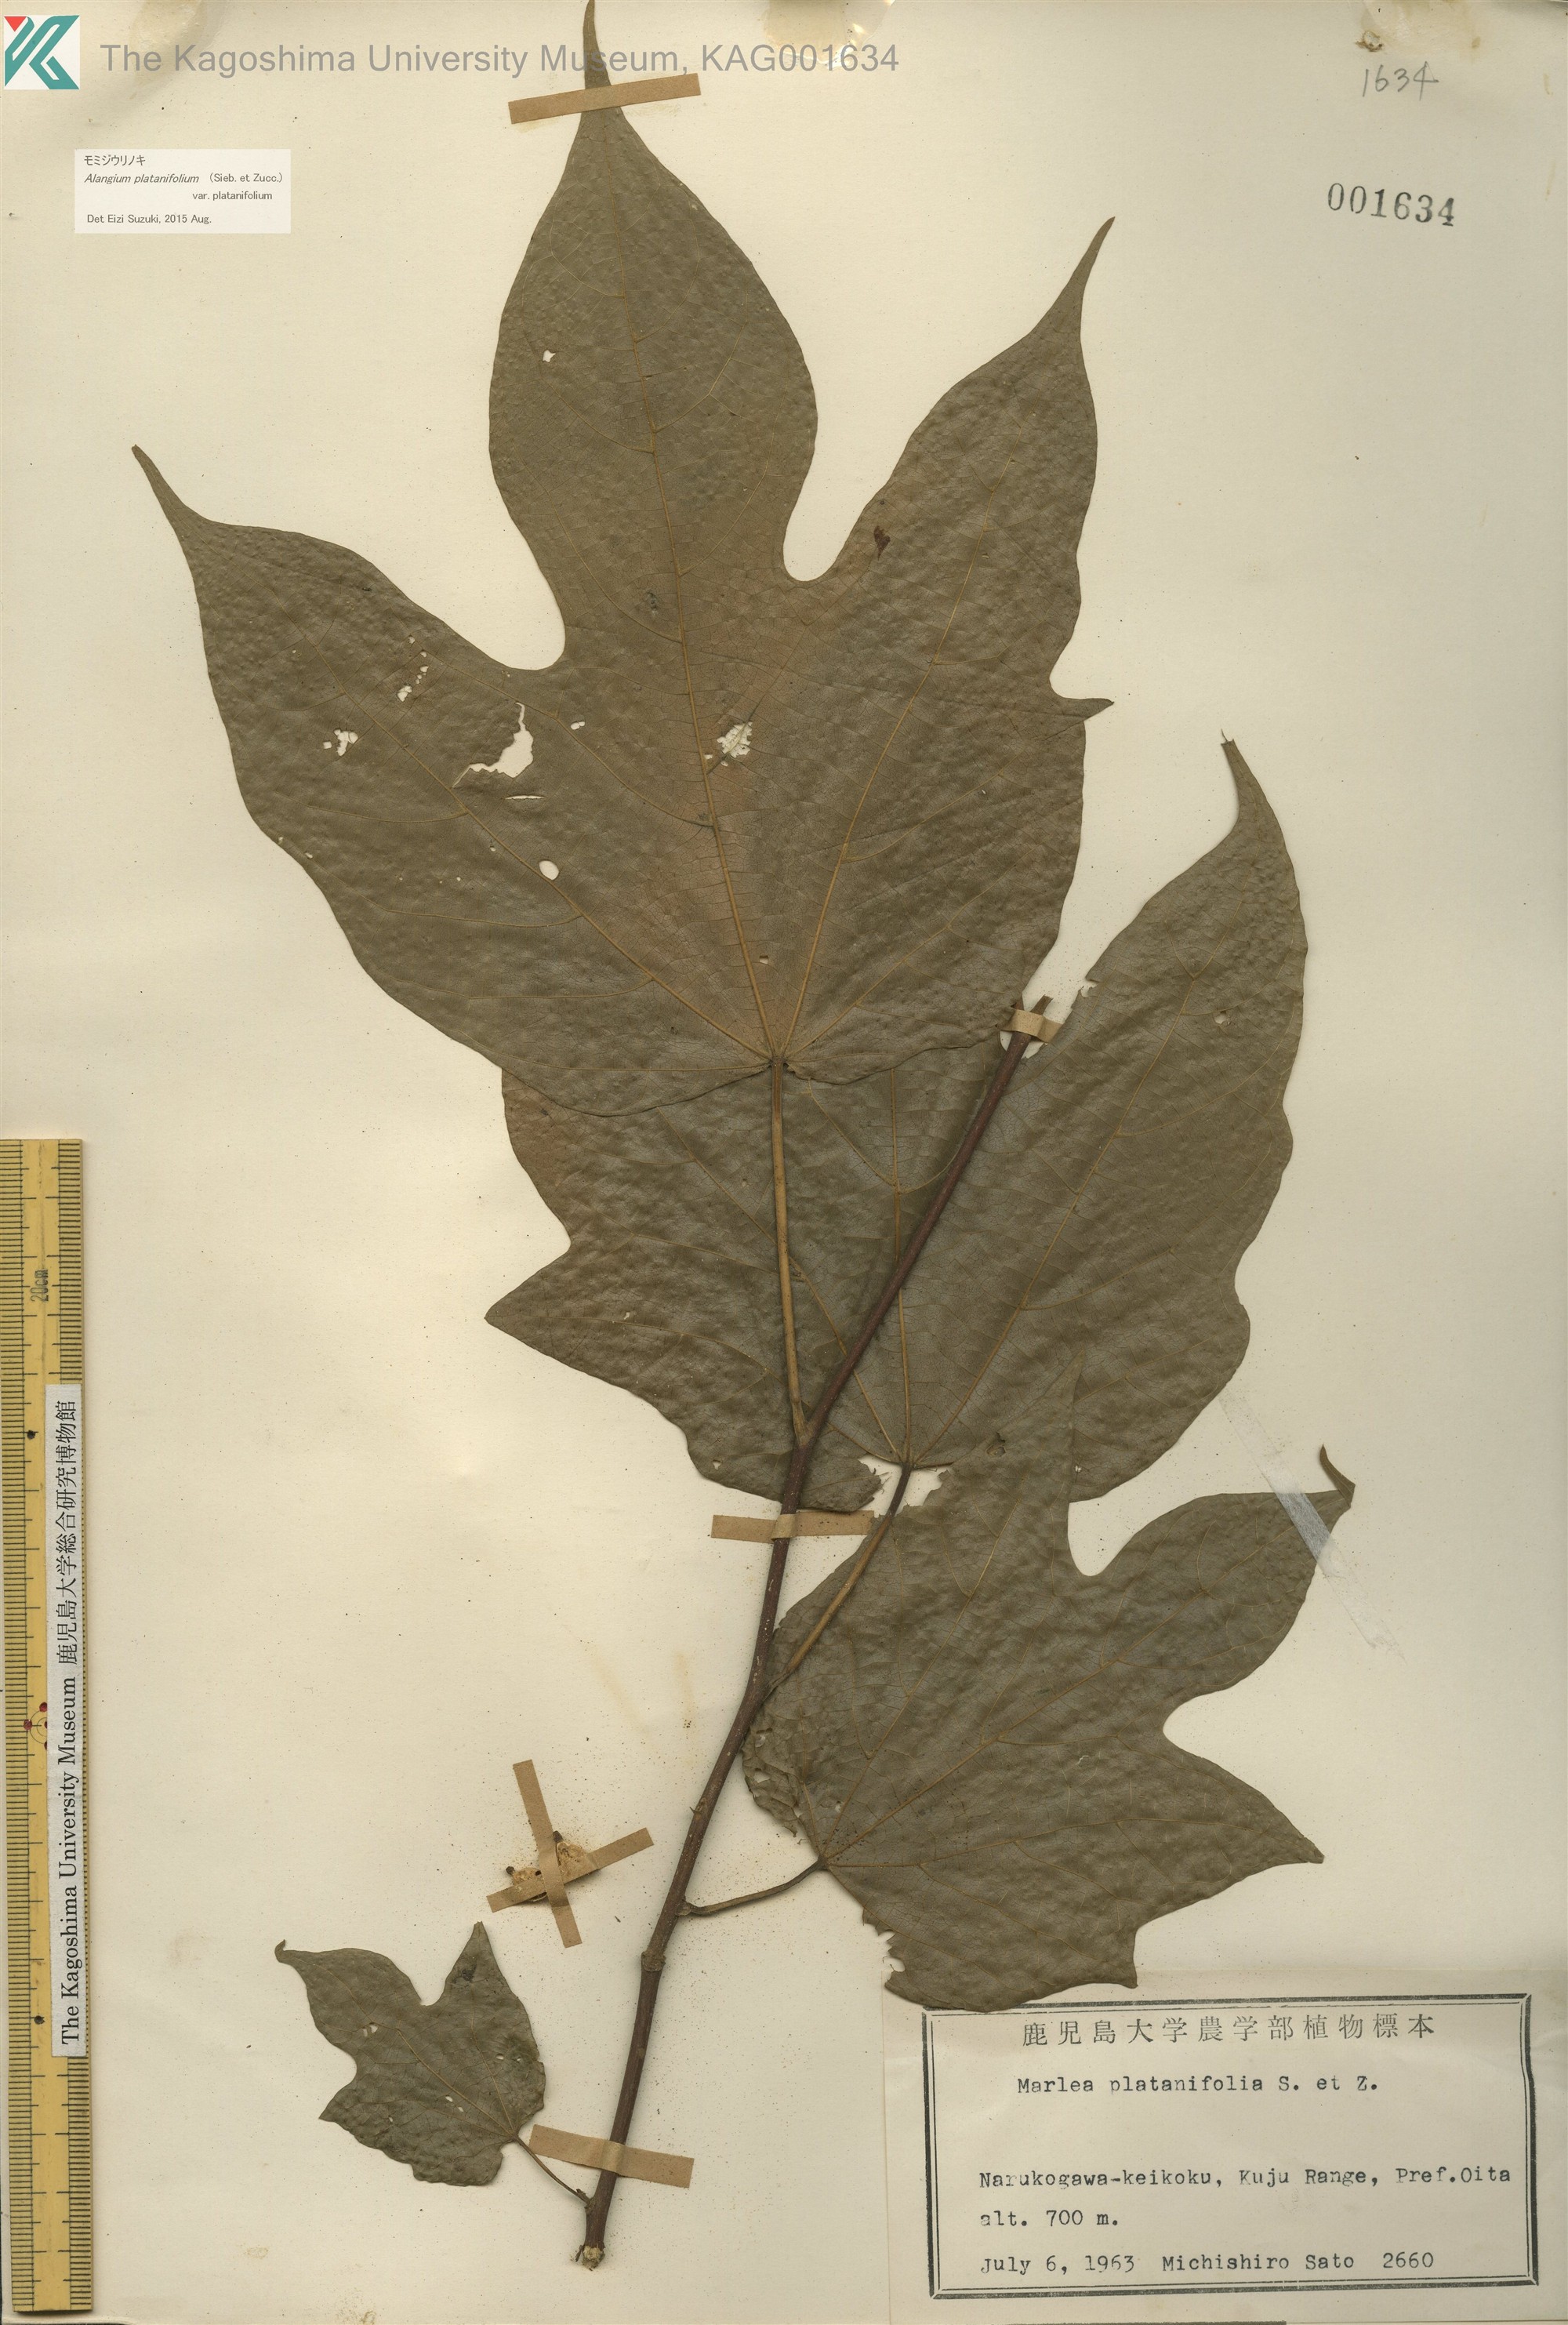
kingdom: Plantae
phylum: Tracheophyta
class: Magnoliopsida
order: Cornales
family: Cornaceae
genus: Alangium
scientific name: Alangium platanifolium
